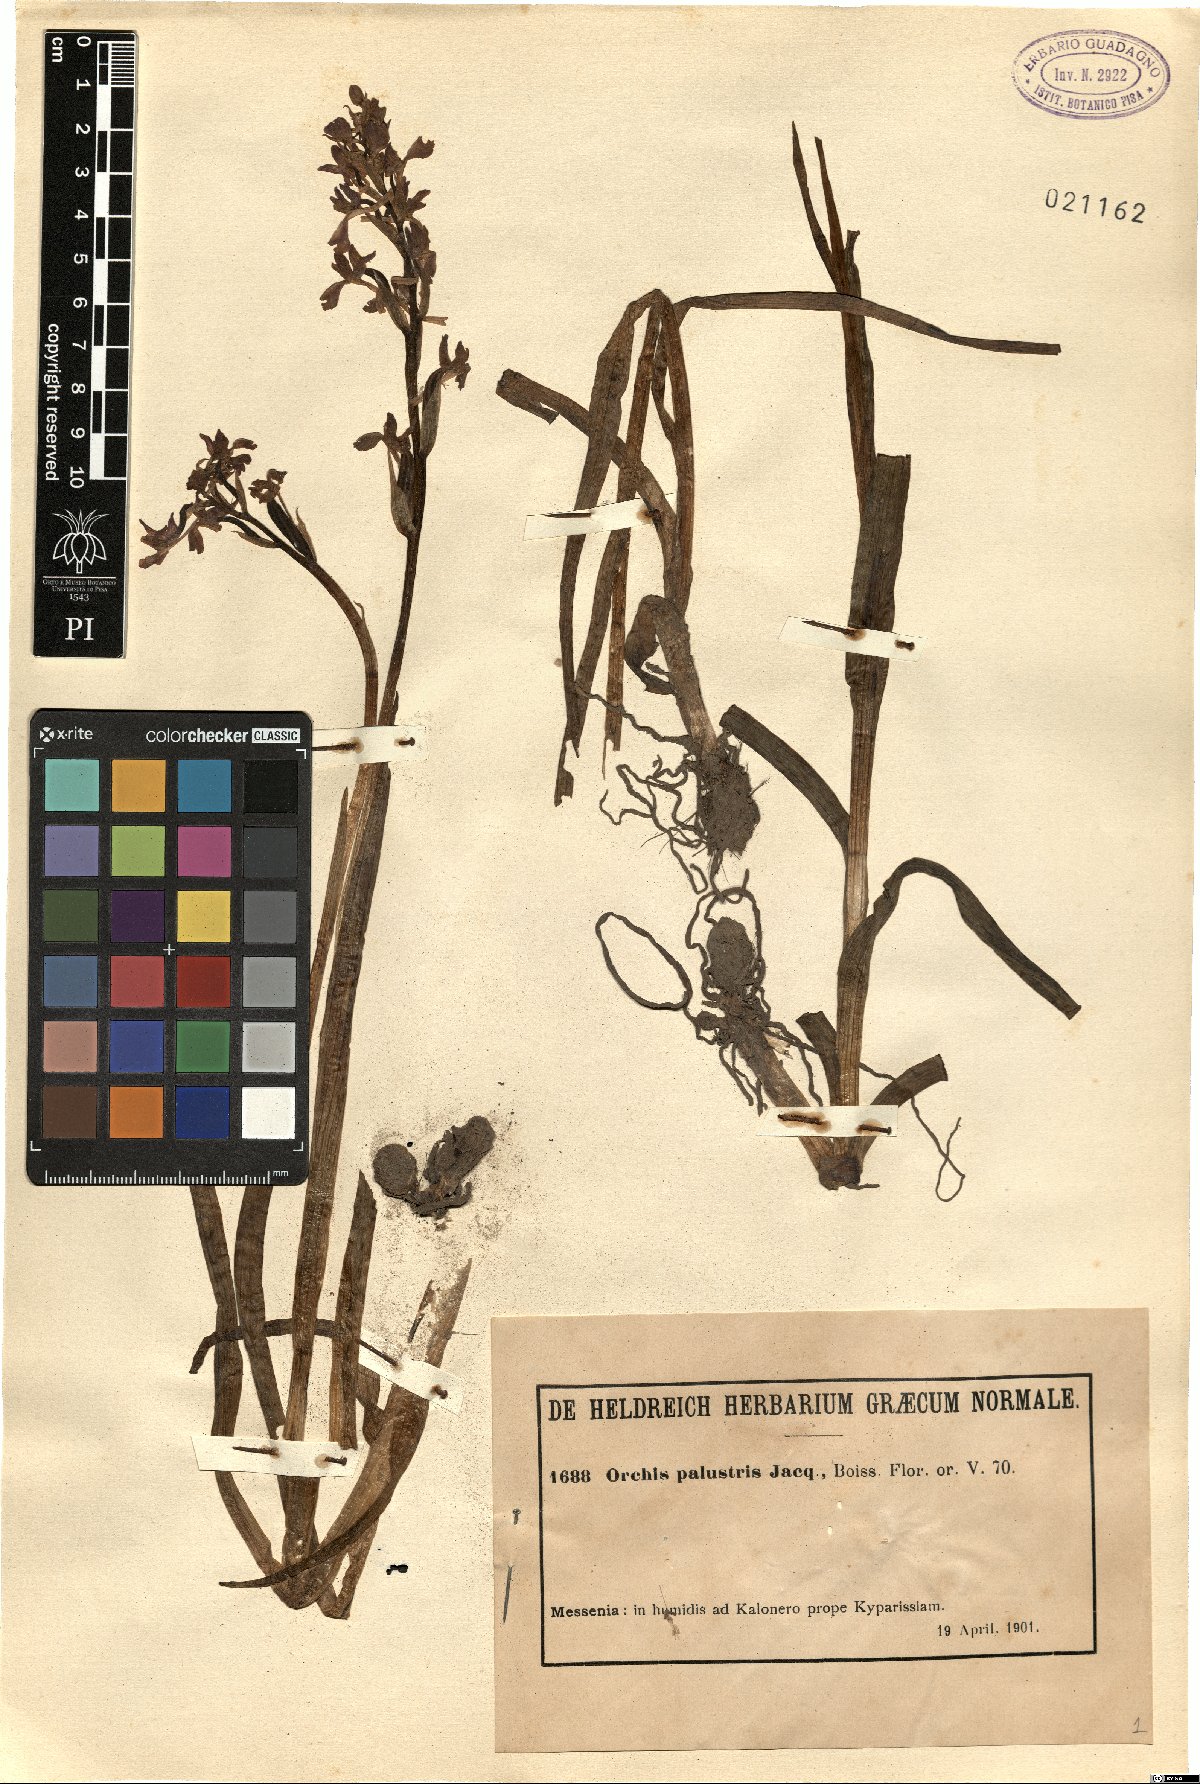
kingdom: Plantae
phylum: Tracheophyta
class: Liliopsida
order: Asparagales
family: Orchidaceae
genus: Anacamptis
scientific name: Anacamptis palustris
